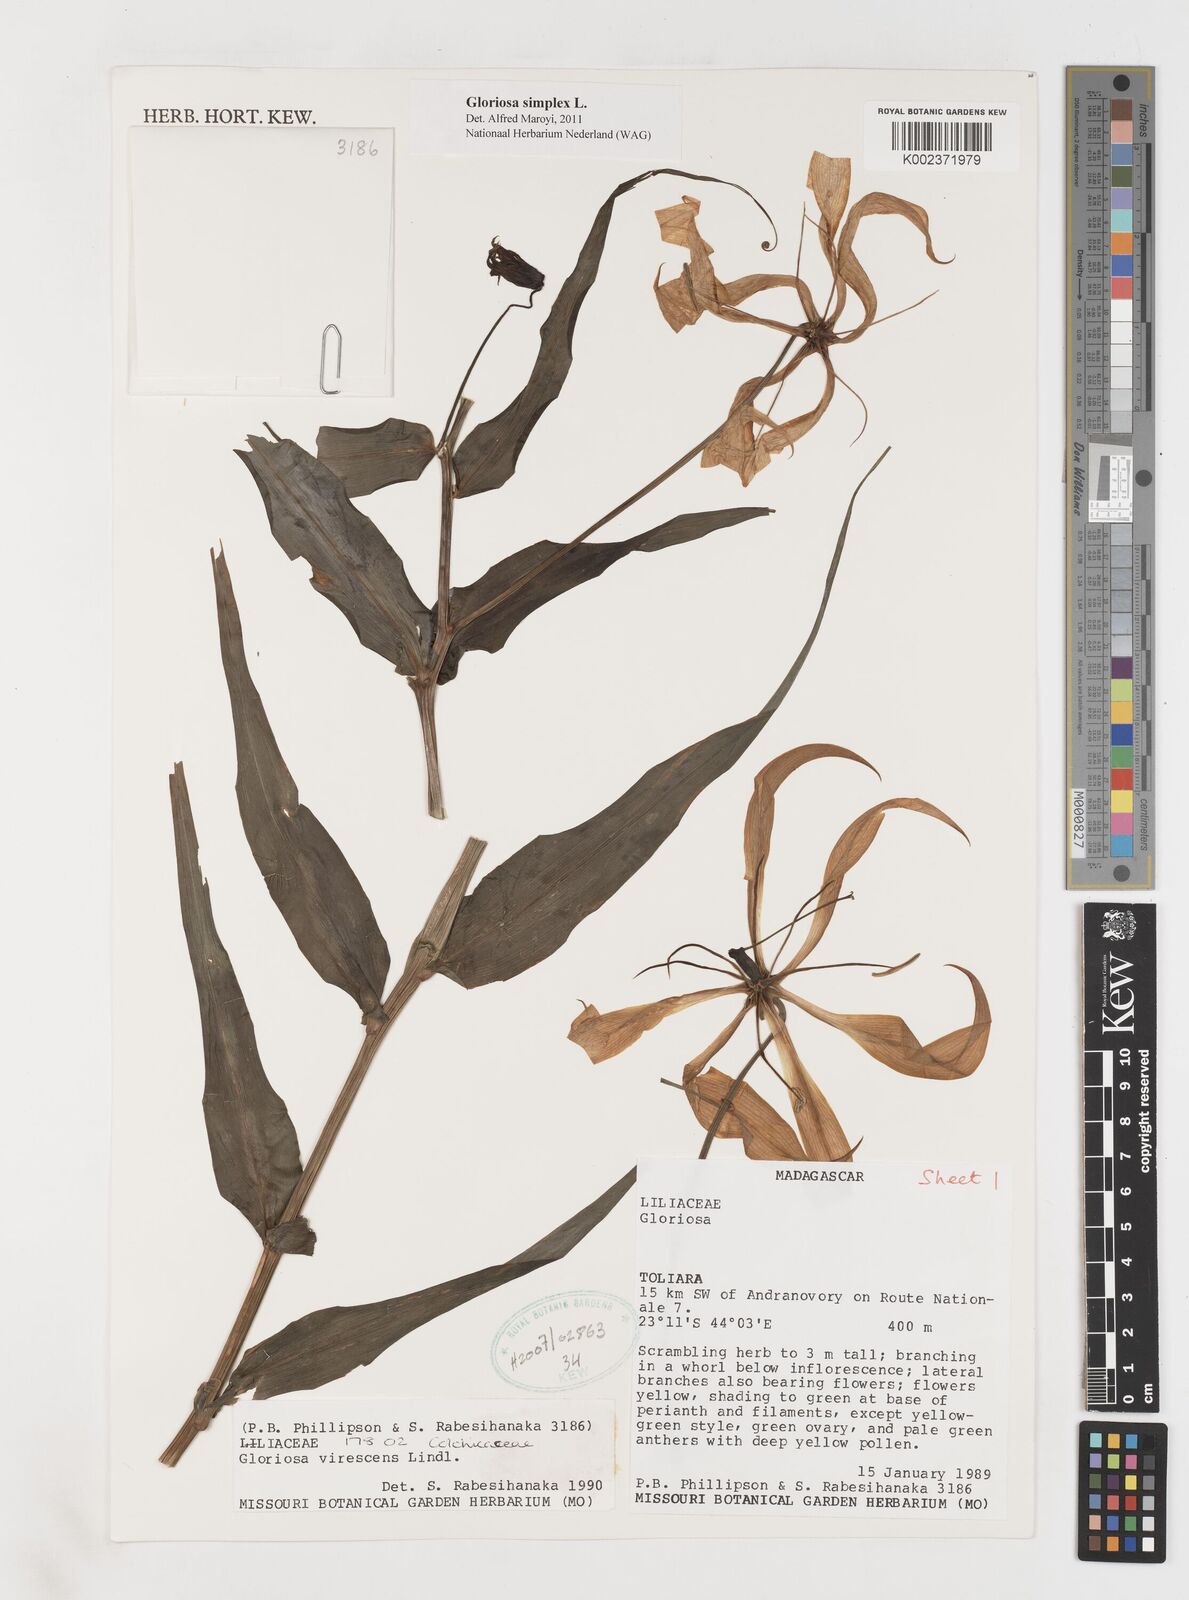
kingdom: Plantae
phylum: Tracheophyta
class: Liliopsida
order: Liliales
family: Colchicaceae
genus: Gloriosa
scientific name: Gloriosa simplex
